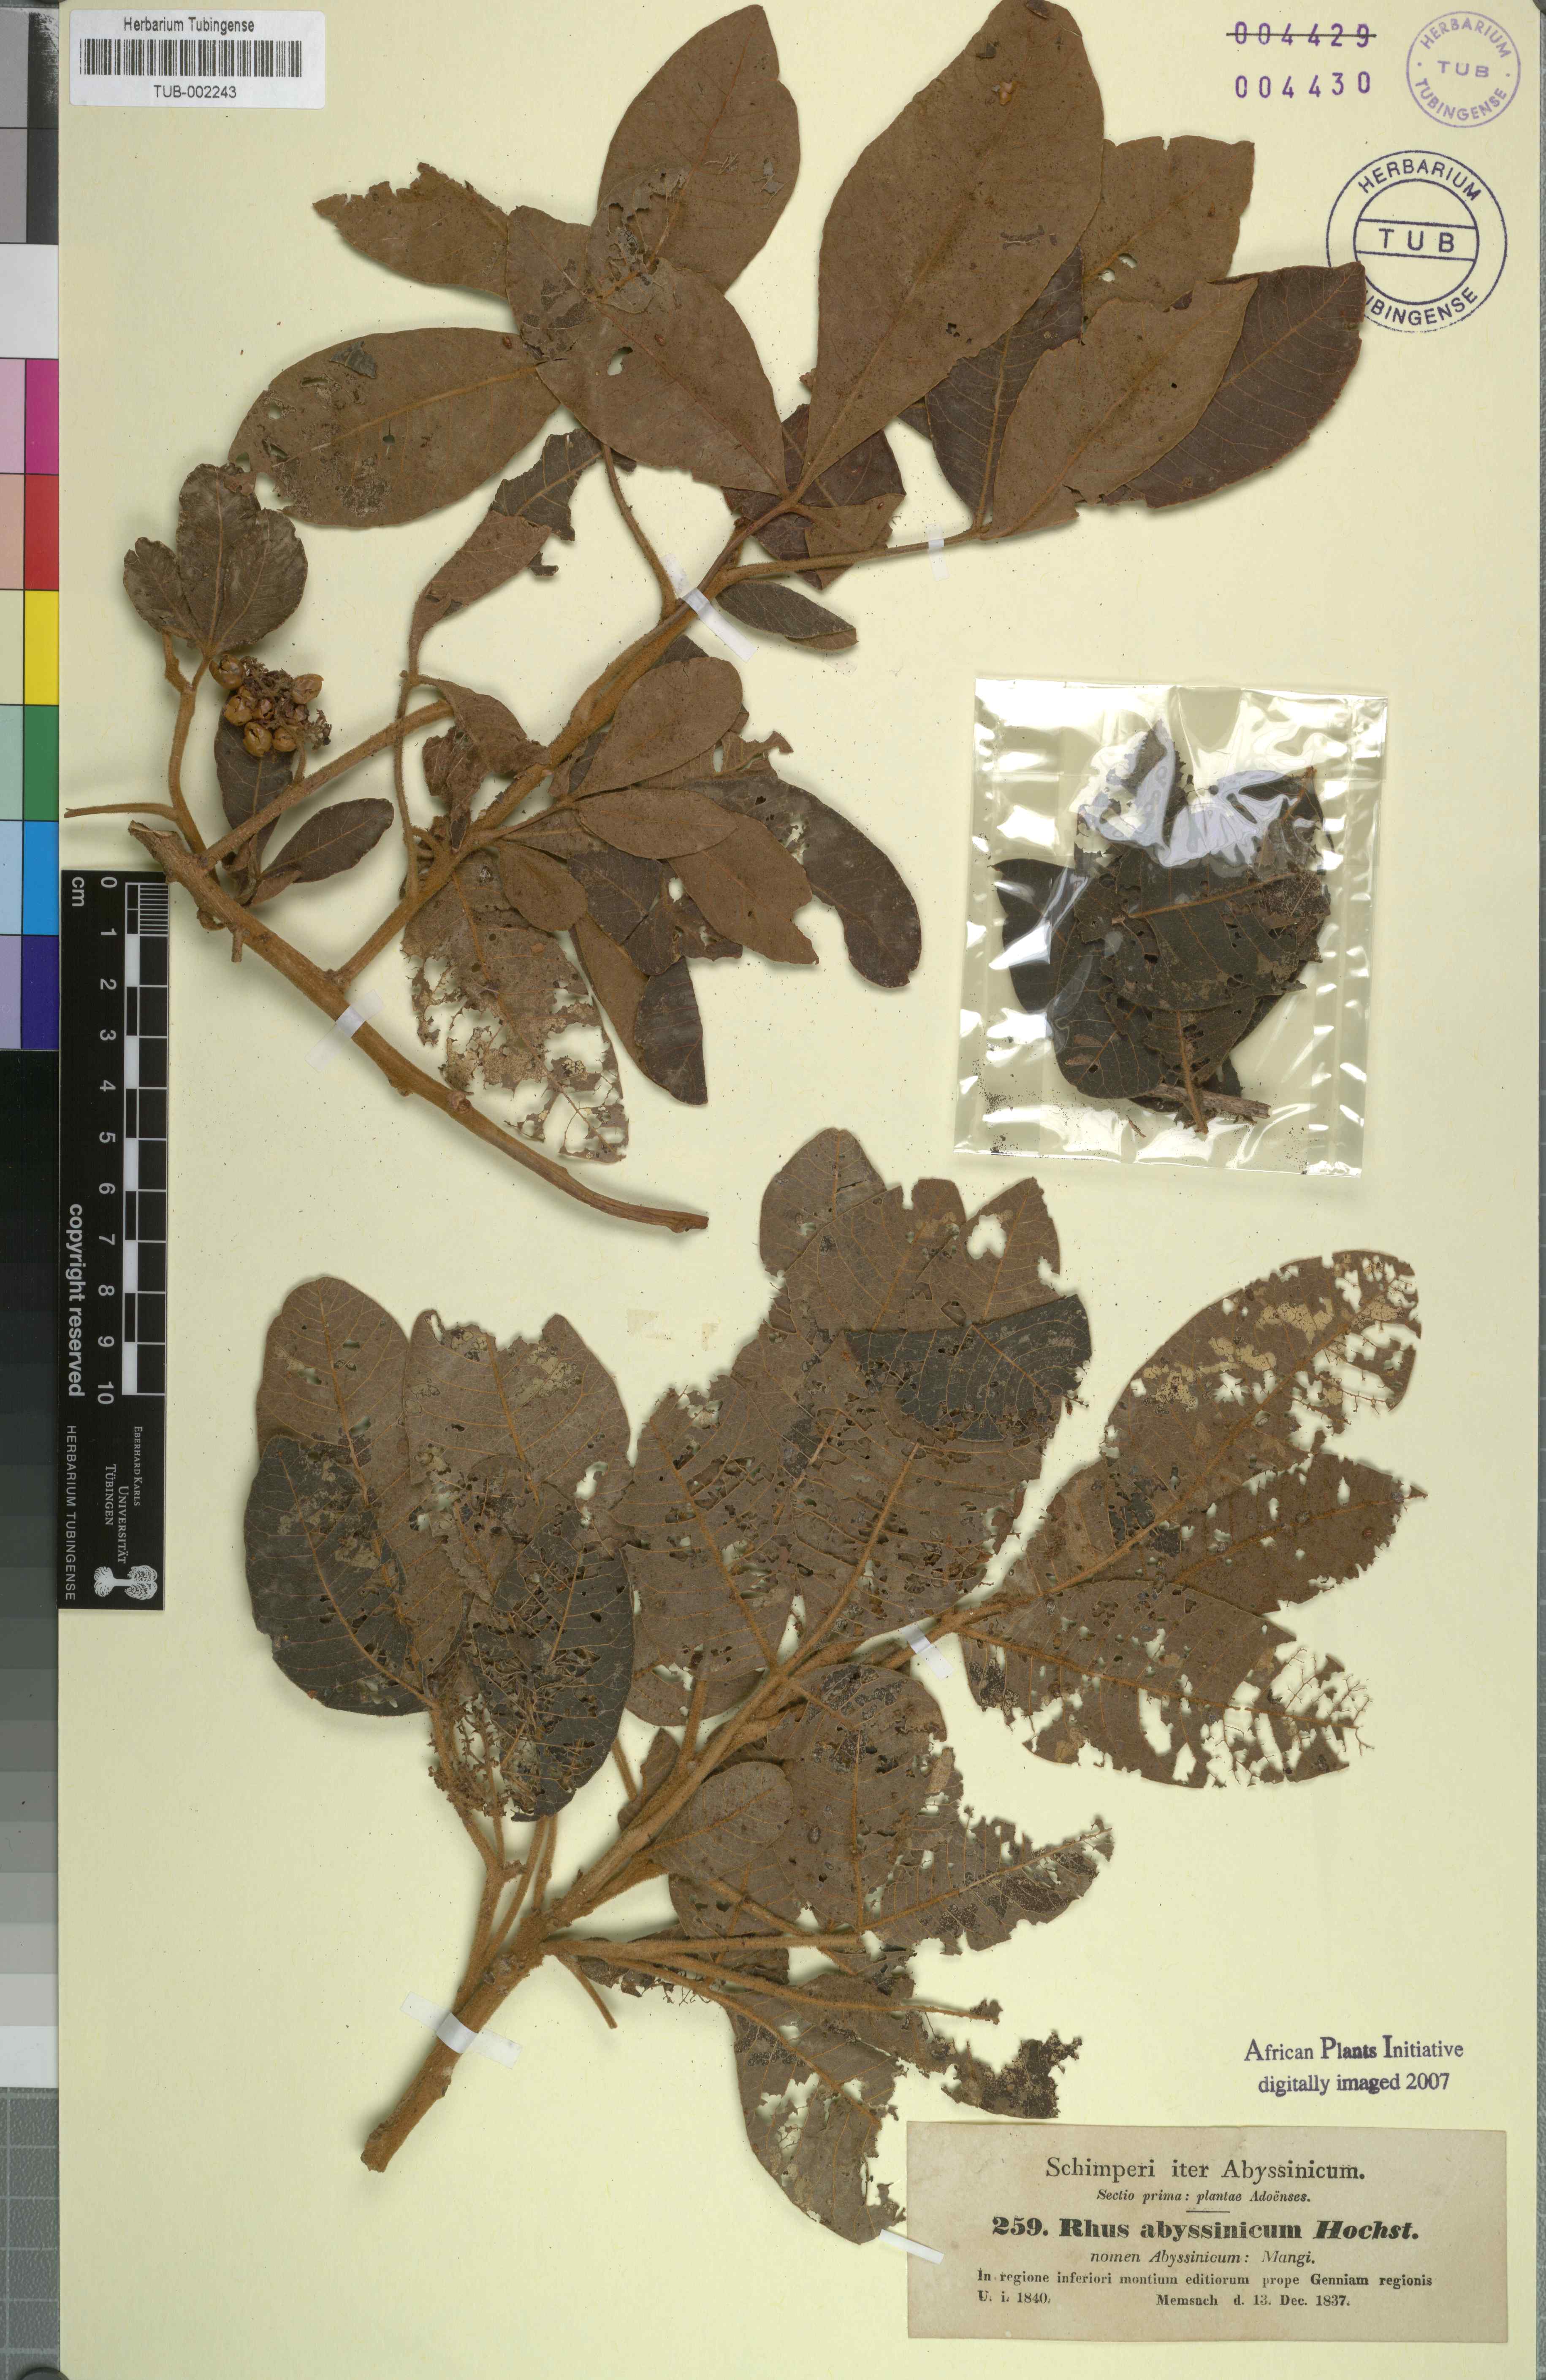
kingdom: Plantae
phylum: Tracheophyta
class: Magnoliopsida
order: Sapindales
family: Anacardiaceae
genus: Searsia
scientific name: Searsia glutinosa
